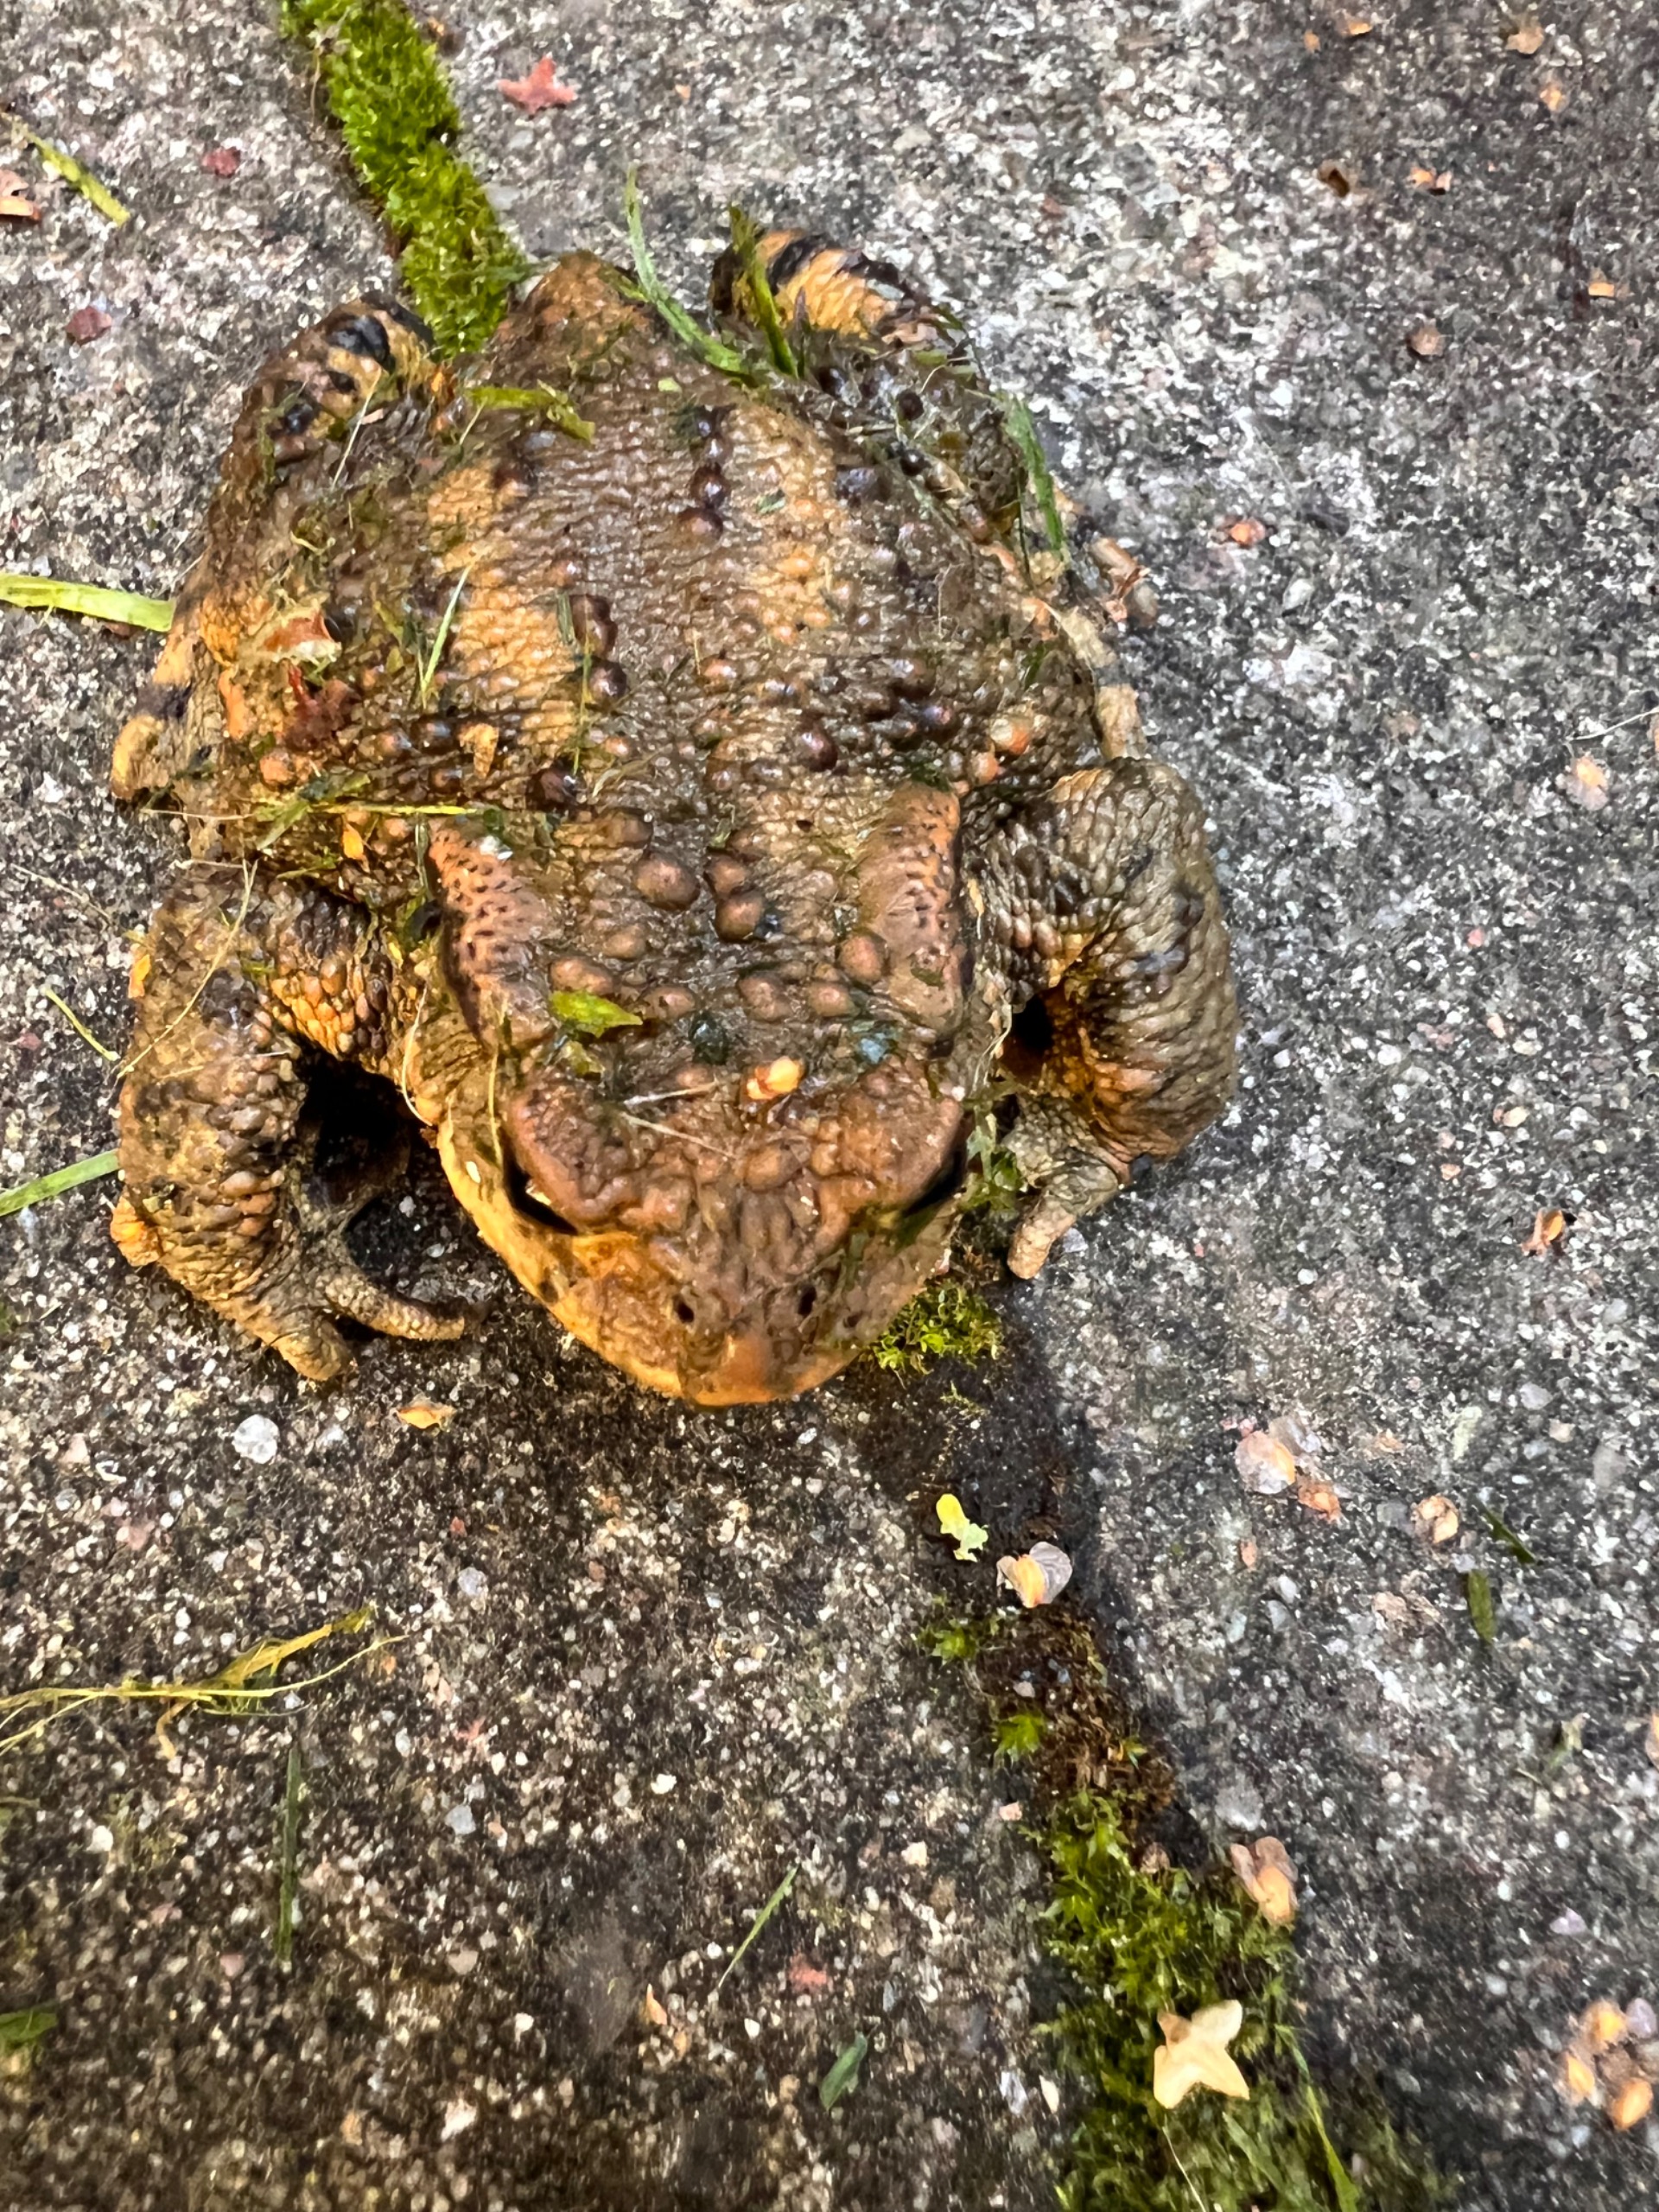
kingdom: Animalia
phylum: Chordata
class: Amphibia
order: Anura
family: Bufonidae
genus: Bufo
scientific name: Bufo bufo
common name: Skrubtudse
